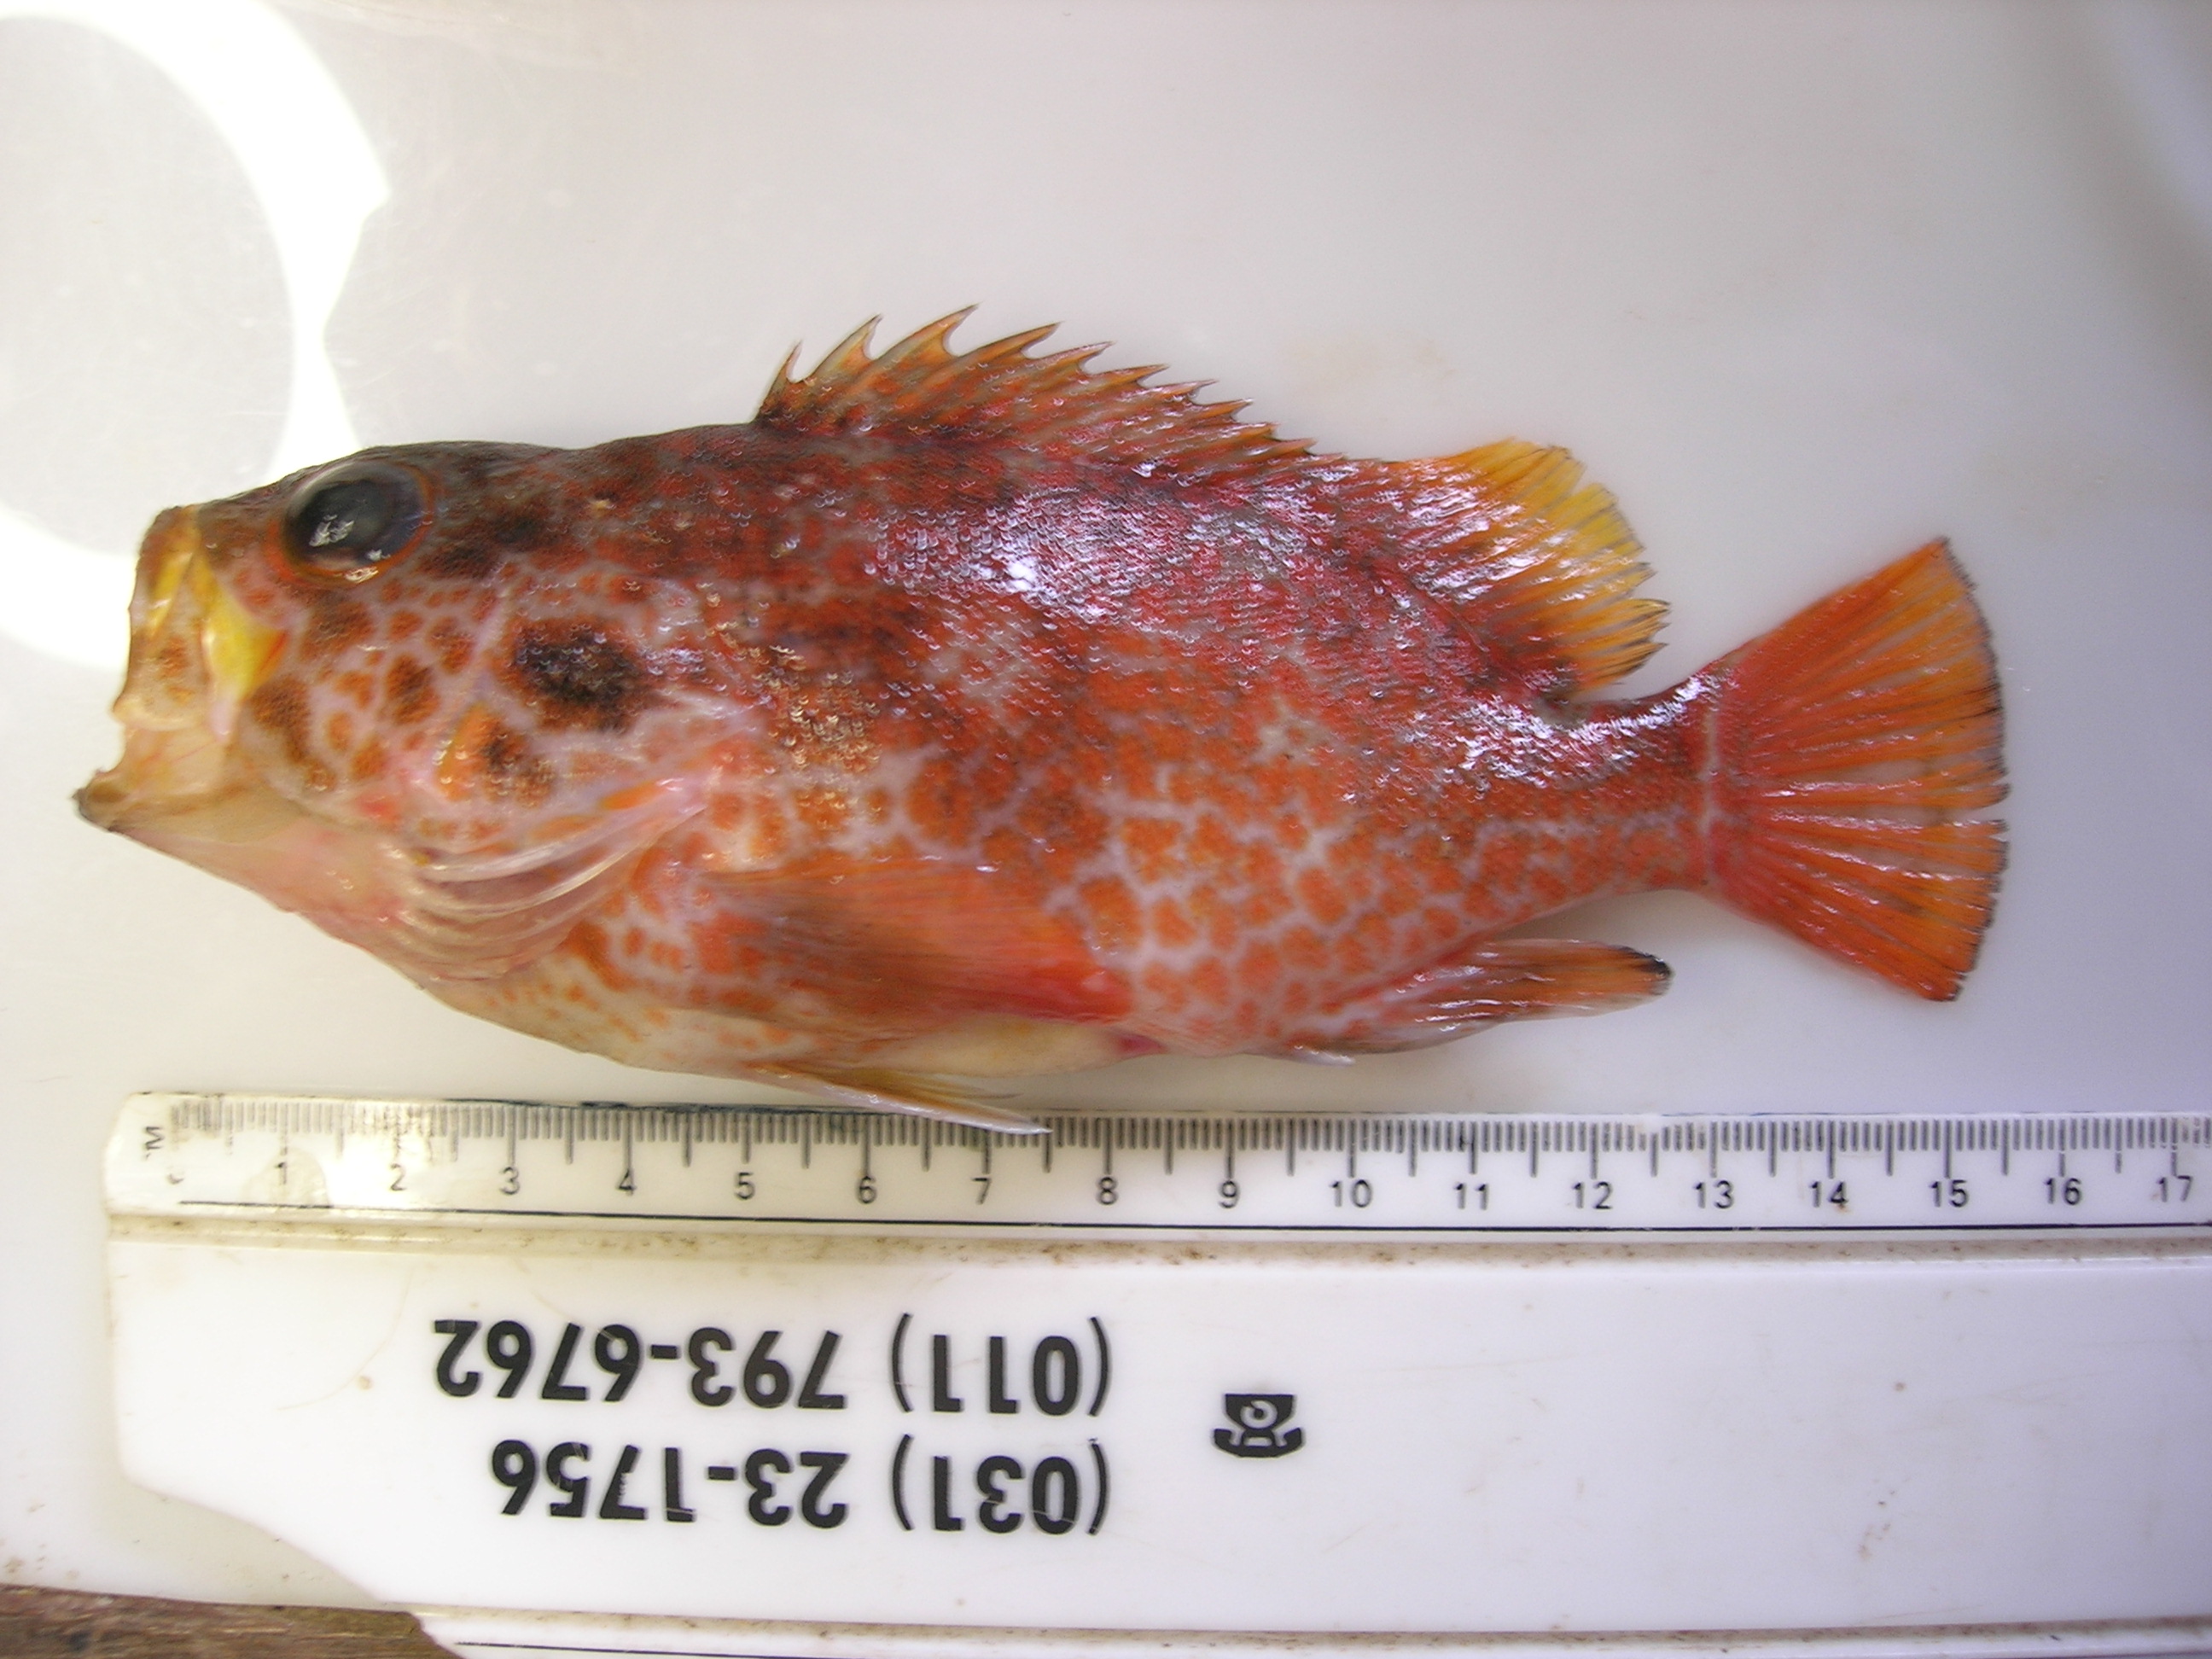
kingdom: Animalia
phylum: Chordata
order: Perciformes
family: Serranidae
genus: Acanthistius
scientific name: Acanthistius joanae
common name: Scalyjaw koester
